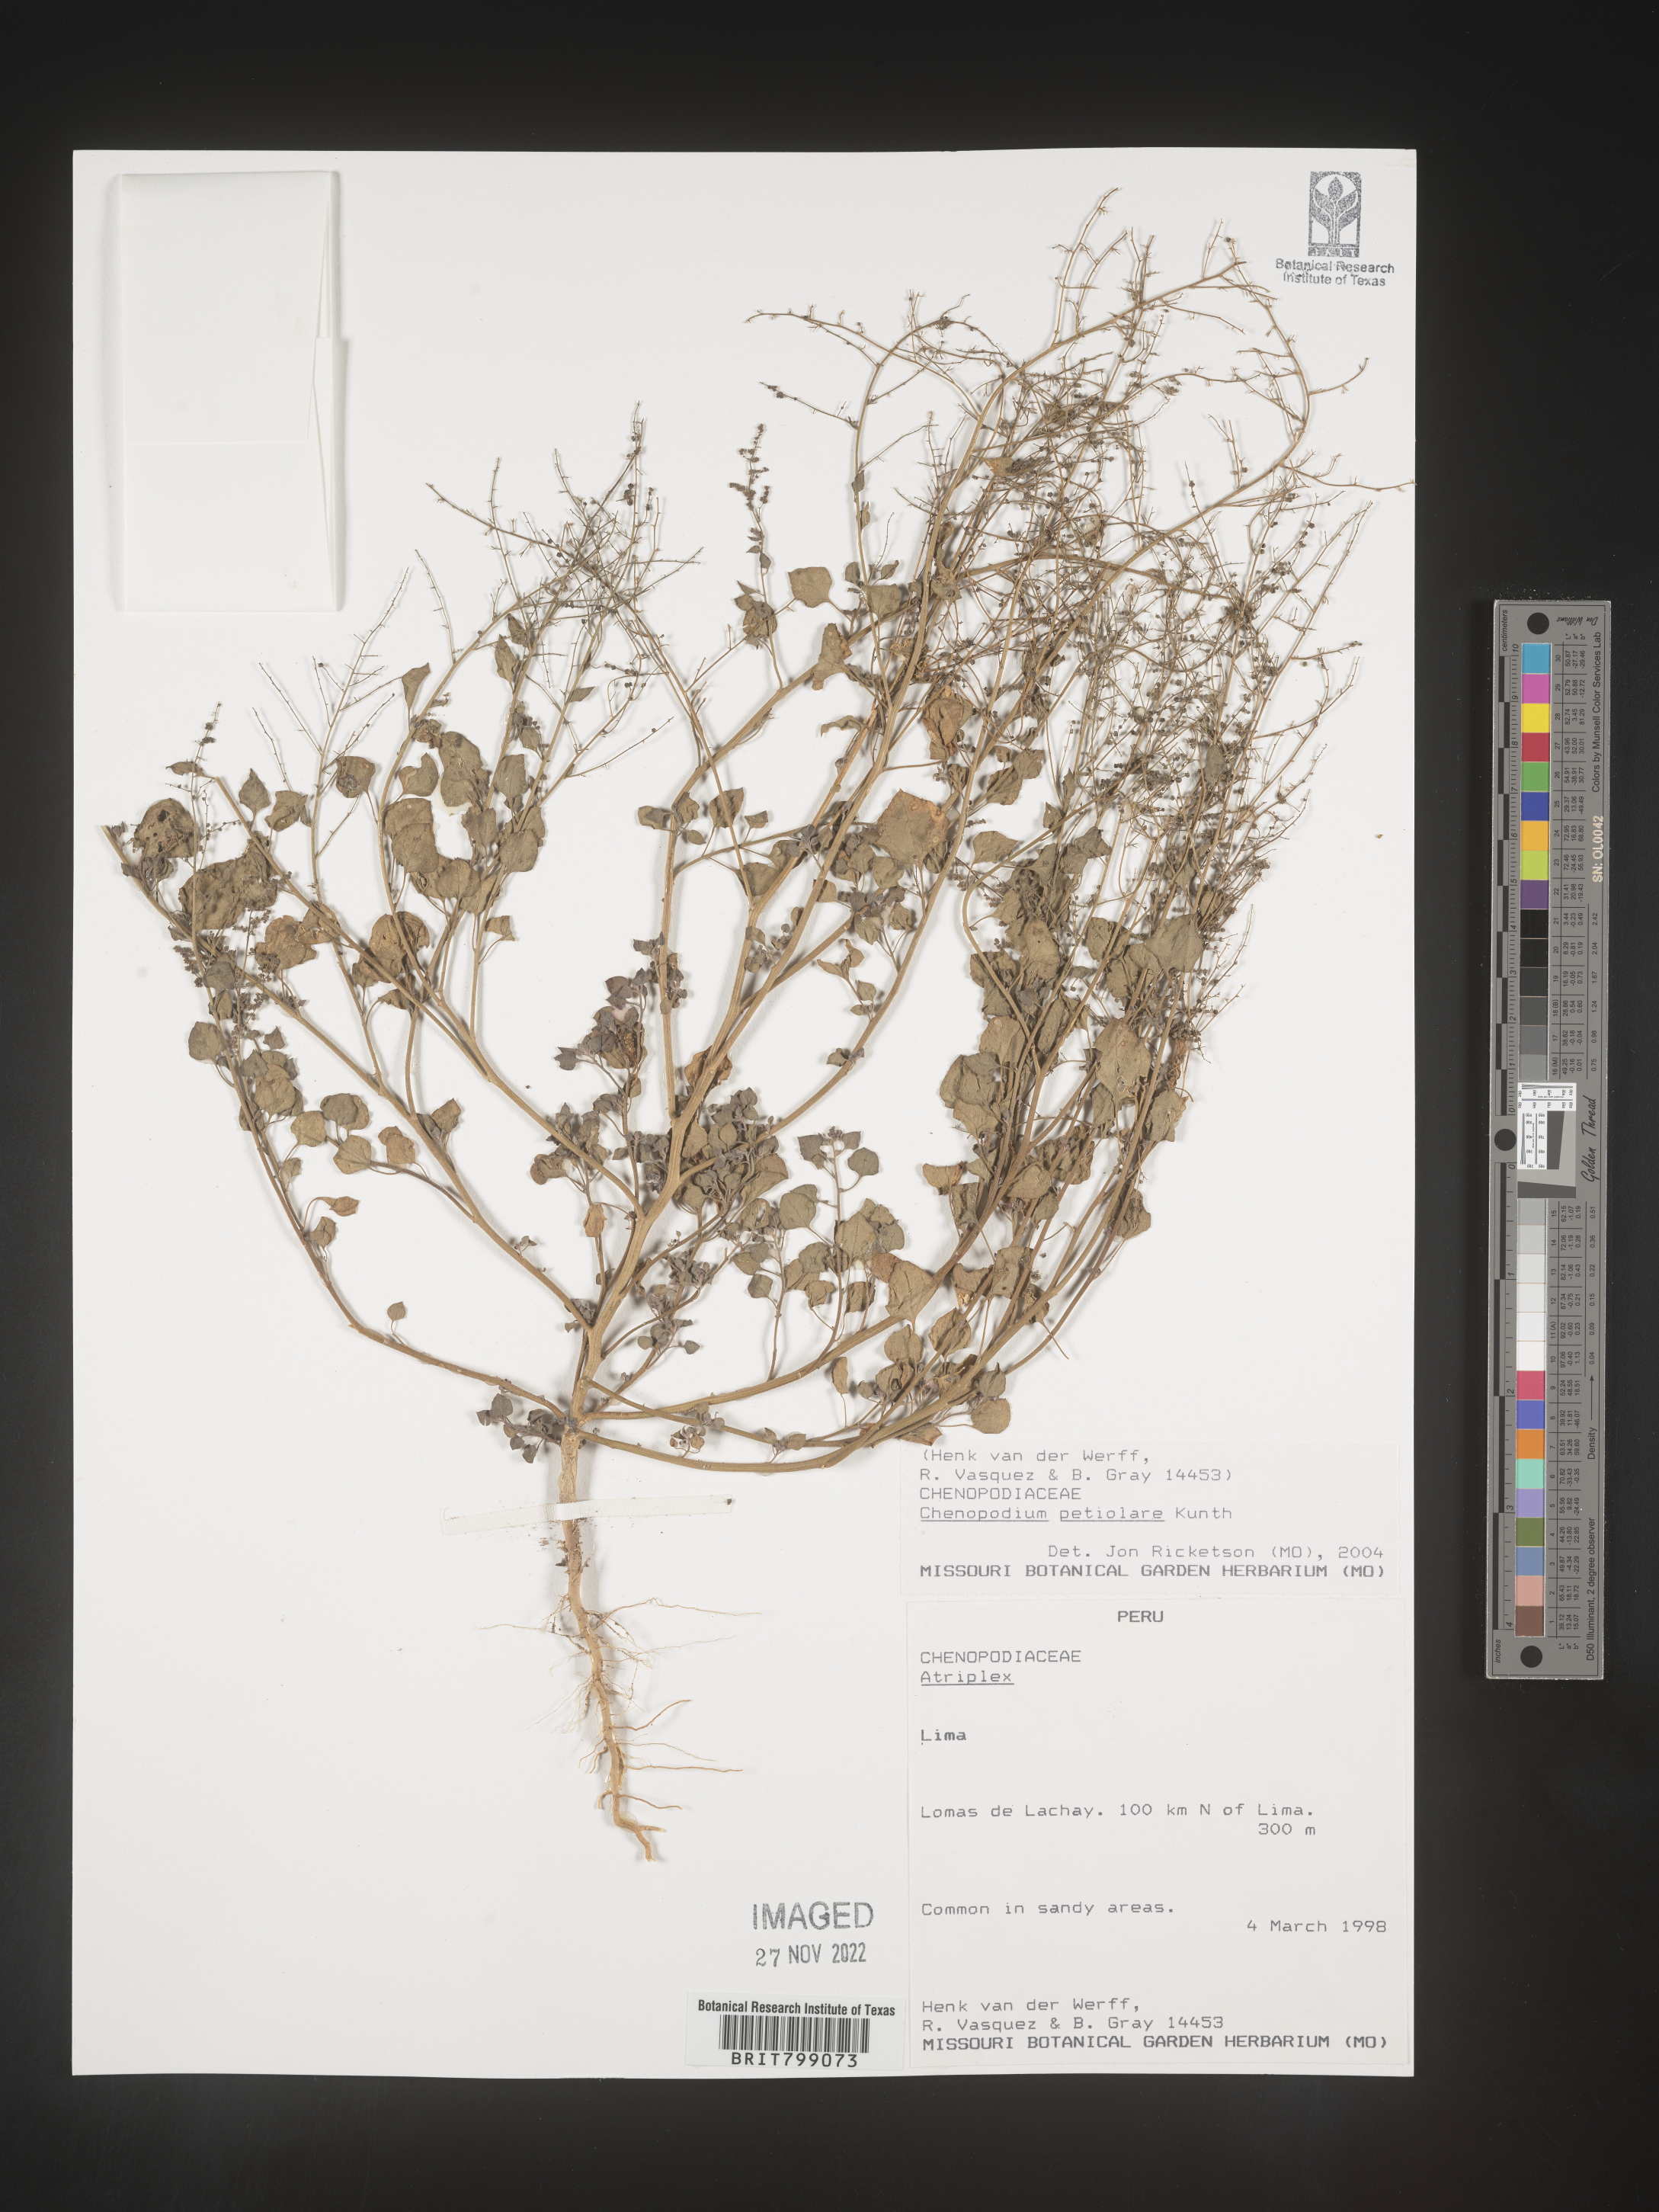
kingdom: Plantae
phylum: Tracheophyta
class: Magnoliopsida
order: Caryophyllales
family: Amaranthaceae
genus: Chenopodium
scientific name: Chenopodium
